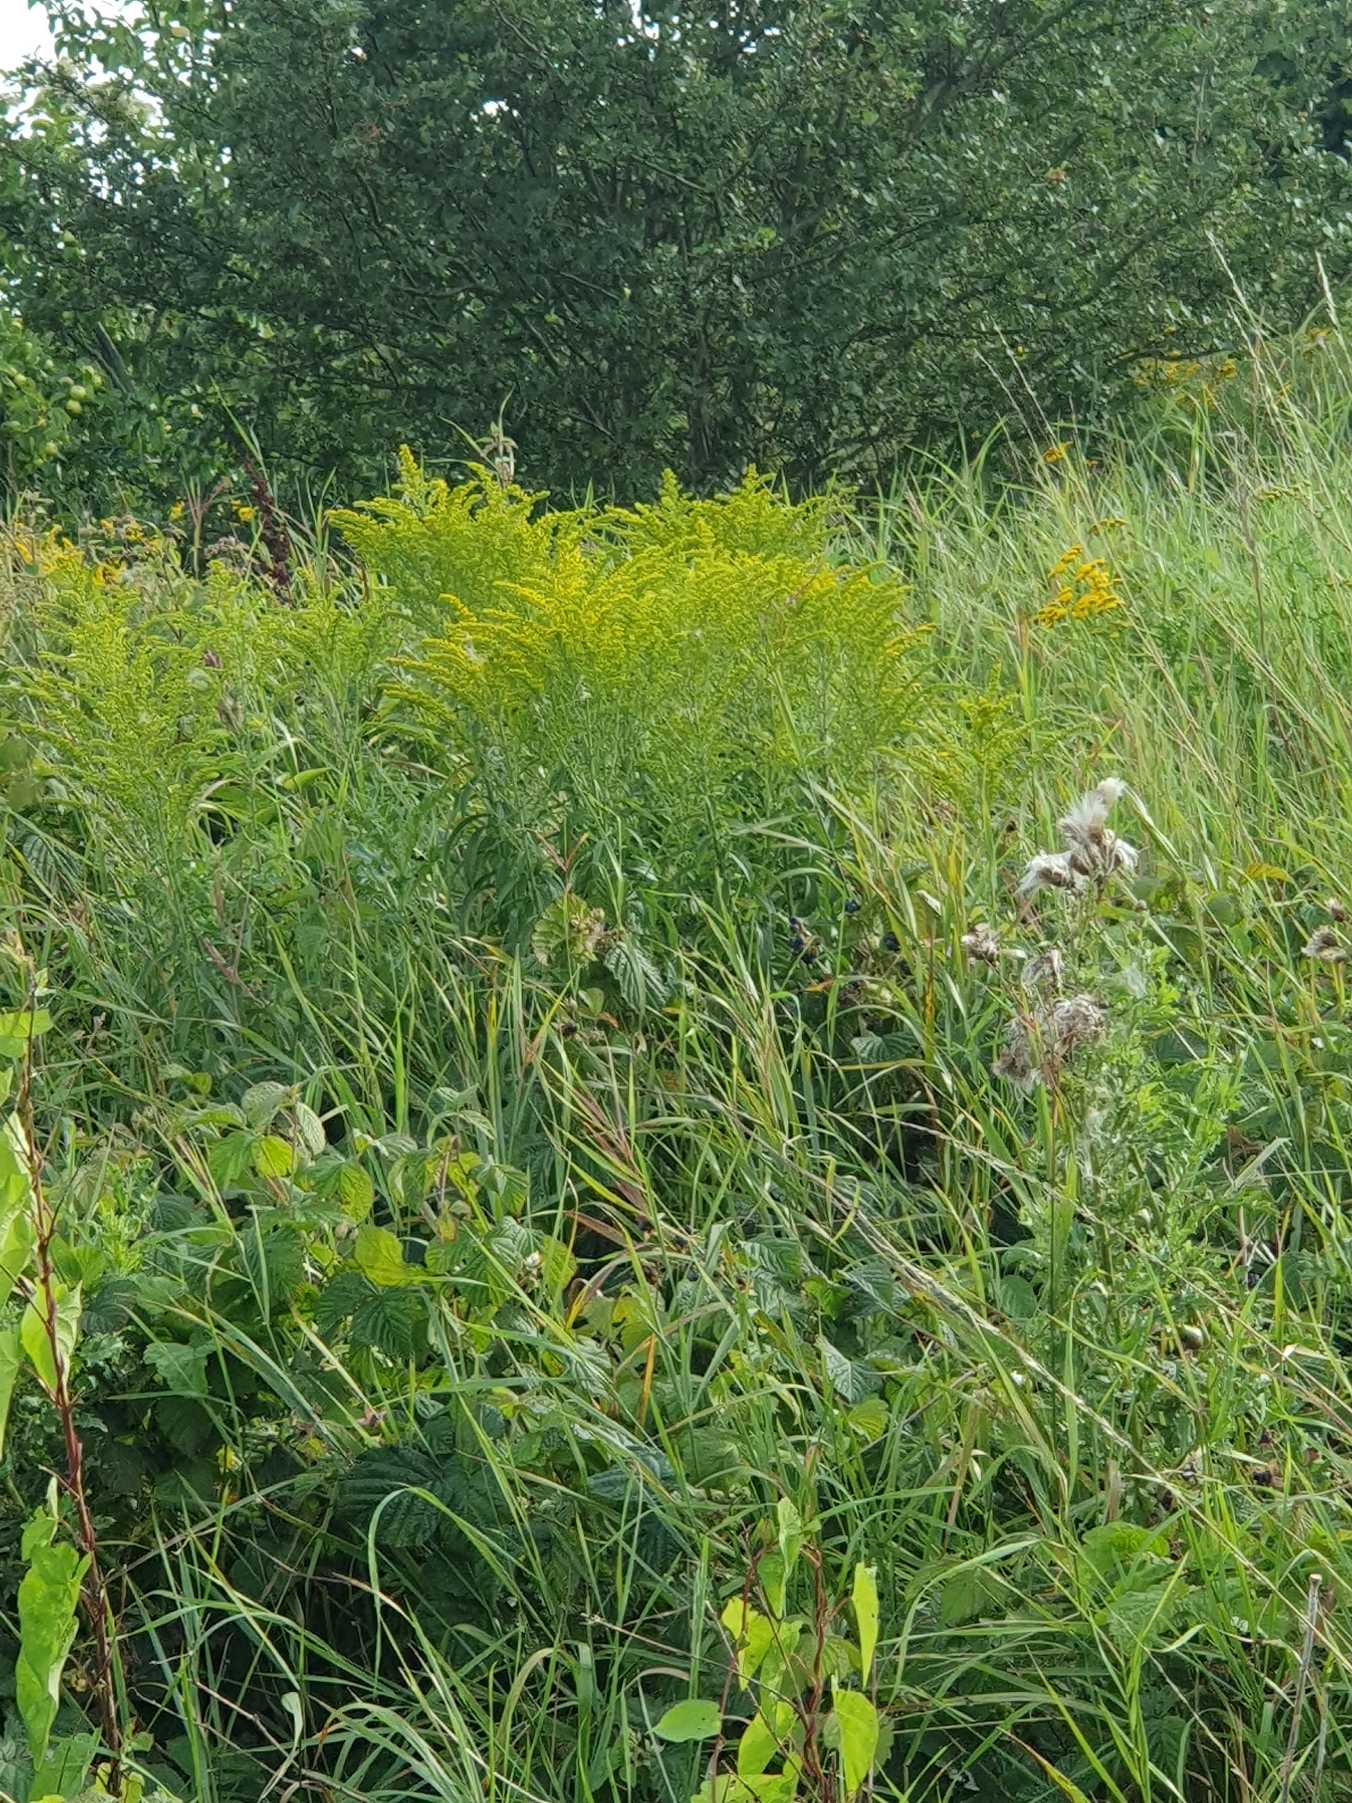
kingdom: Plantae
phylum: Tracheophyta
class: Magnoliopsida
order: Asterales
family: Asteraceae
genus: Solidago
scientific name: Solidago
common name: Gyldenrisslægten
